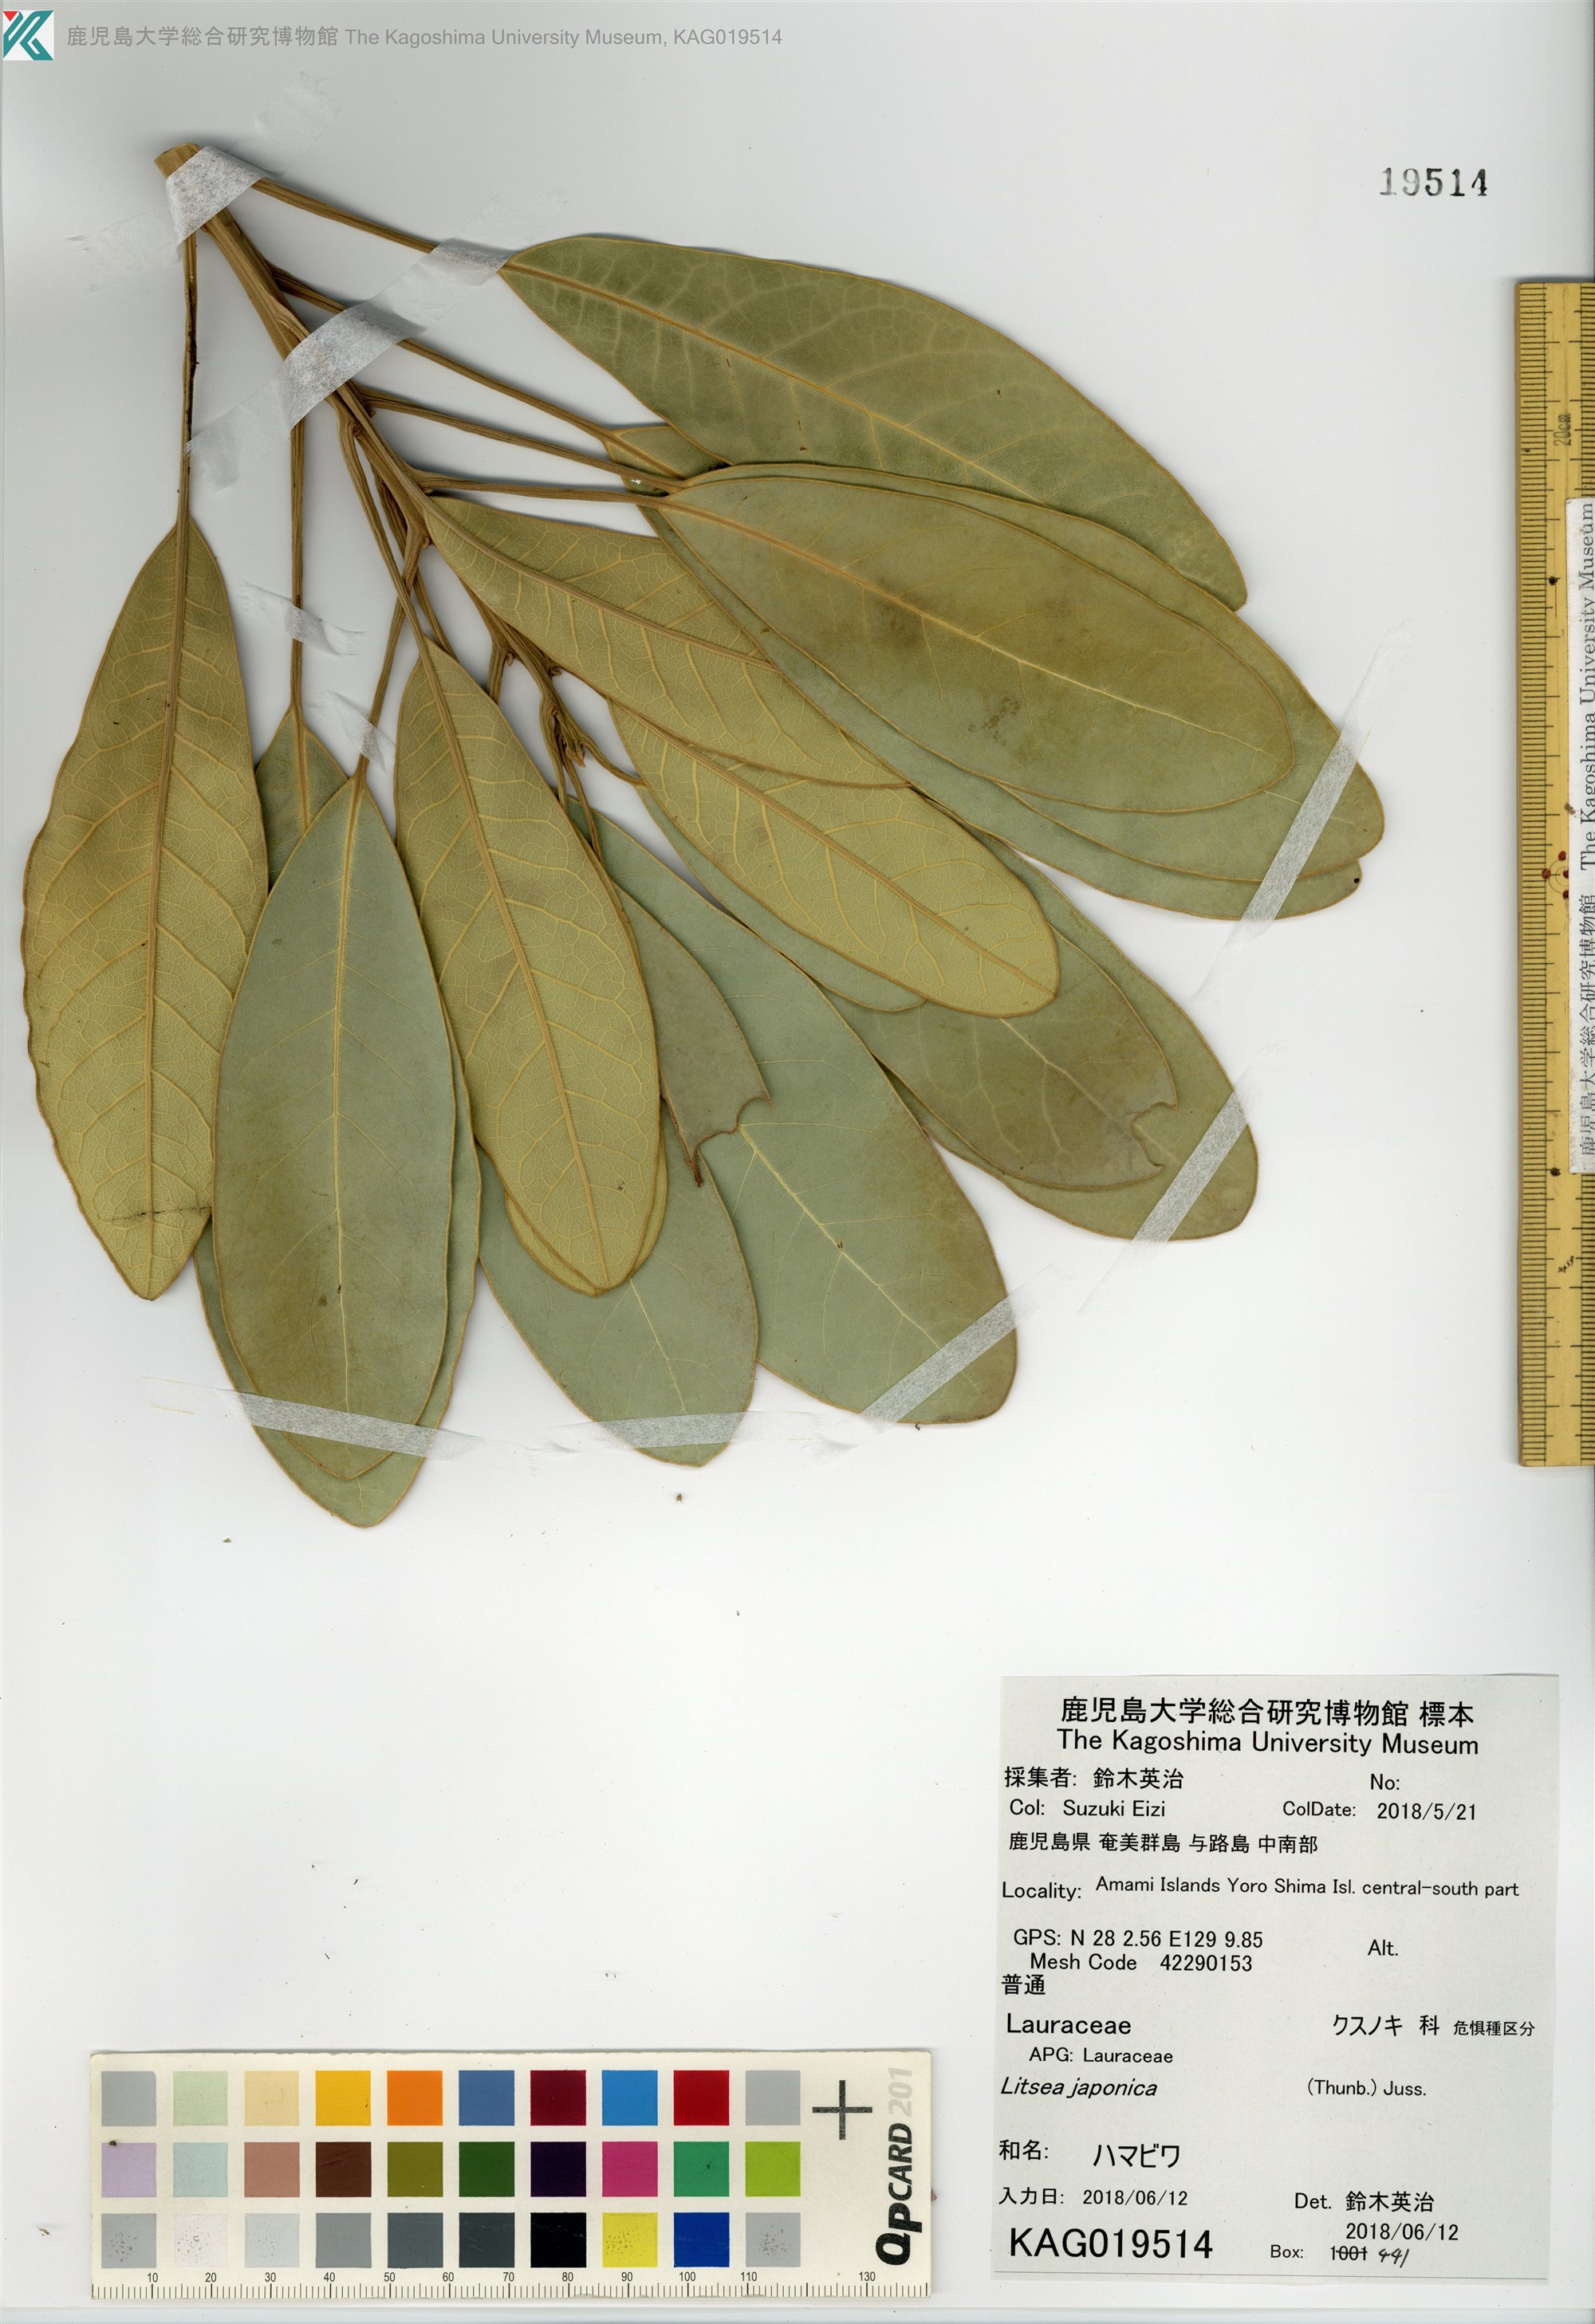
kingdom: Plantae
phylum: Tracheophyta
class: Magnoliopsida
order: Laurales
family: Lauraceae
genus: Litsea
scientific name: Litsea japonica
